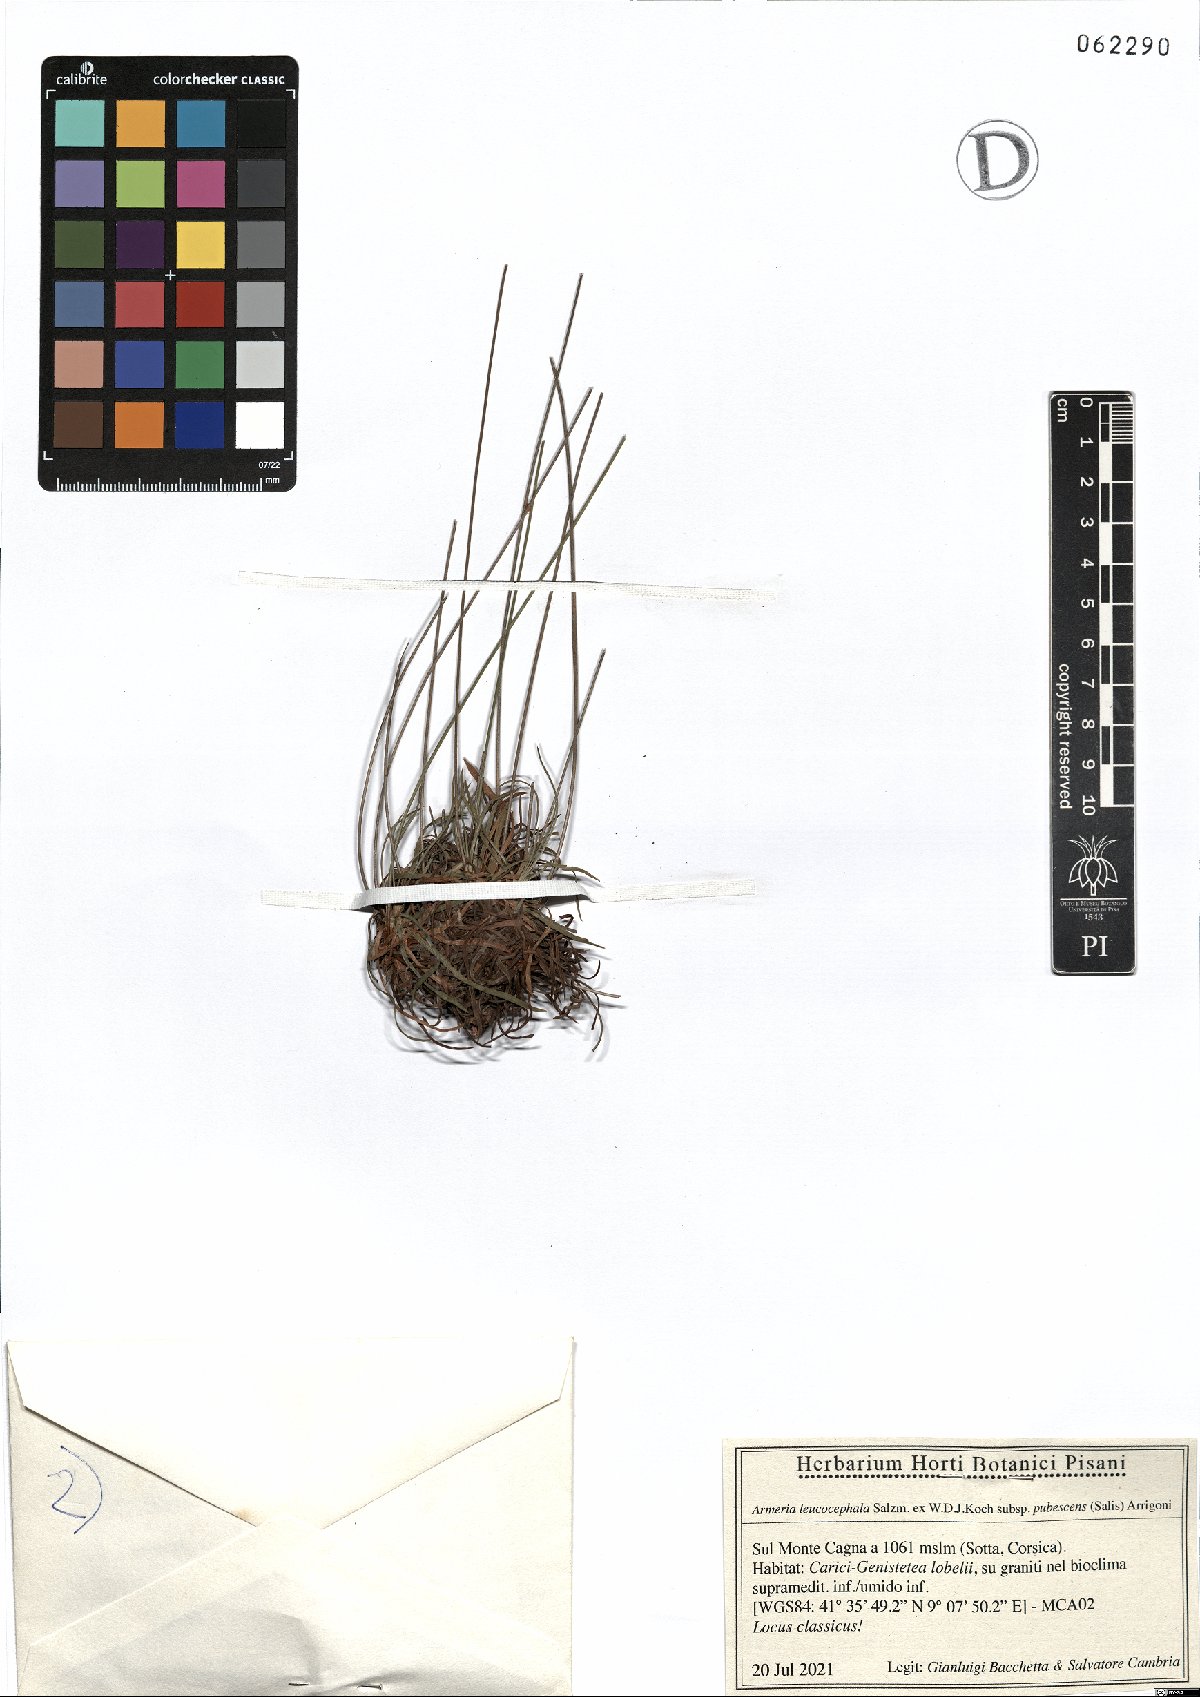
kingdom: Plantae
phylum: Tracheophyta
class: Magnoliopsida
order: Caryophyllales
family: Plumbaginaceae
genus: Armeria
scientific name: Armeria leucocephala
